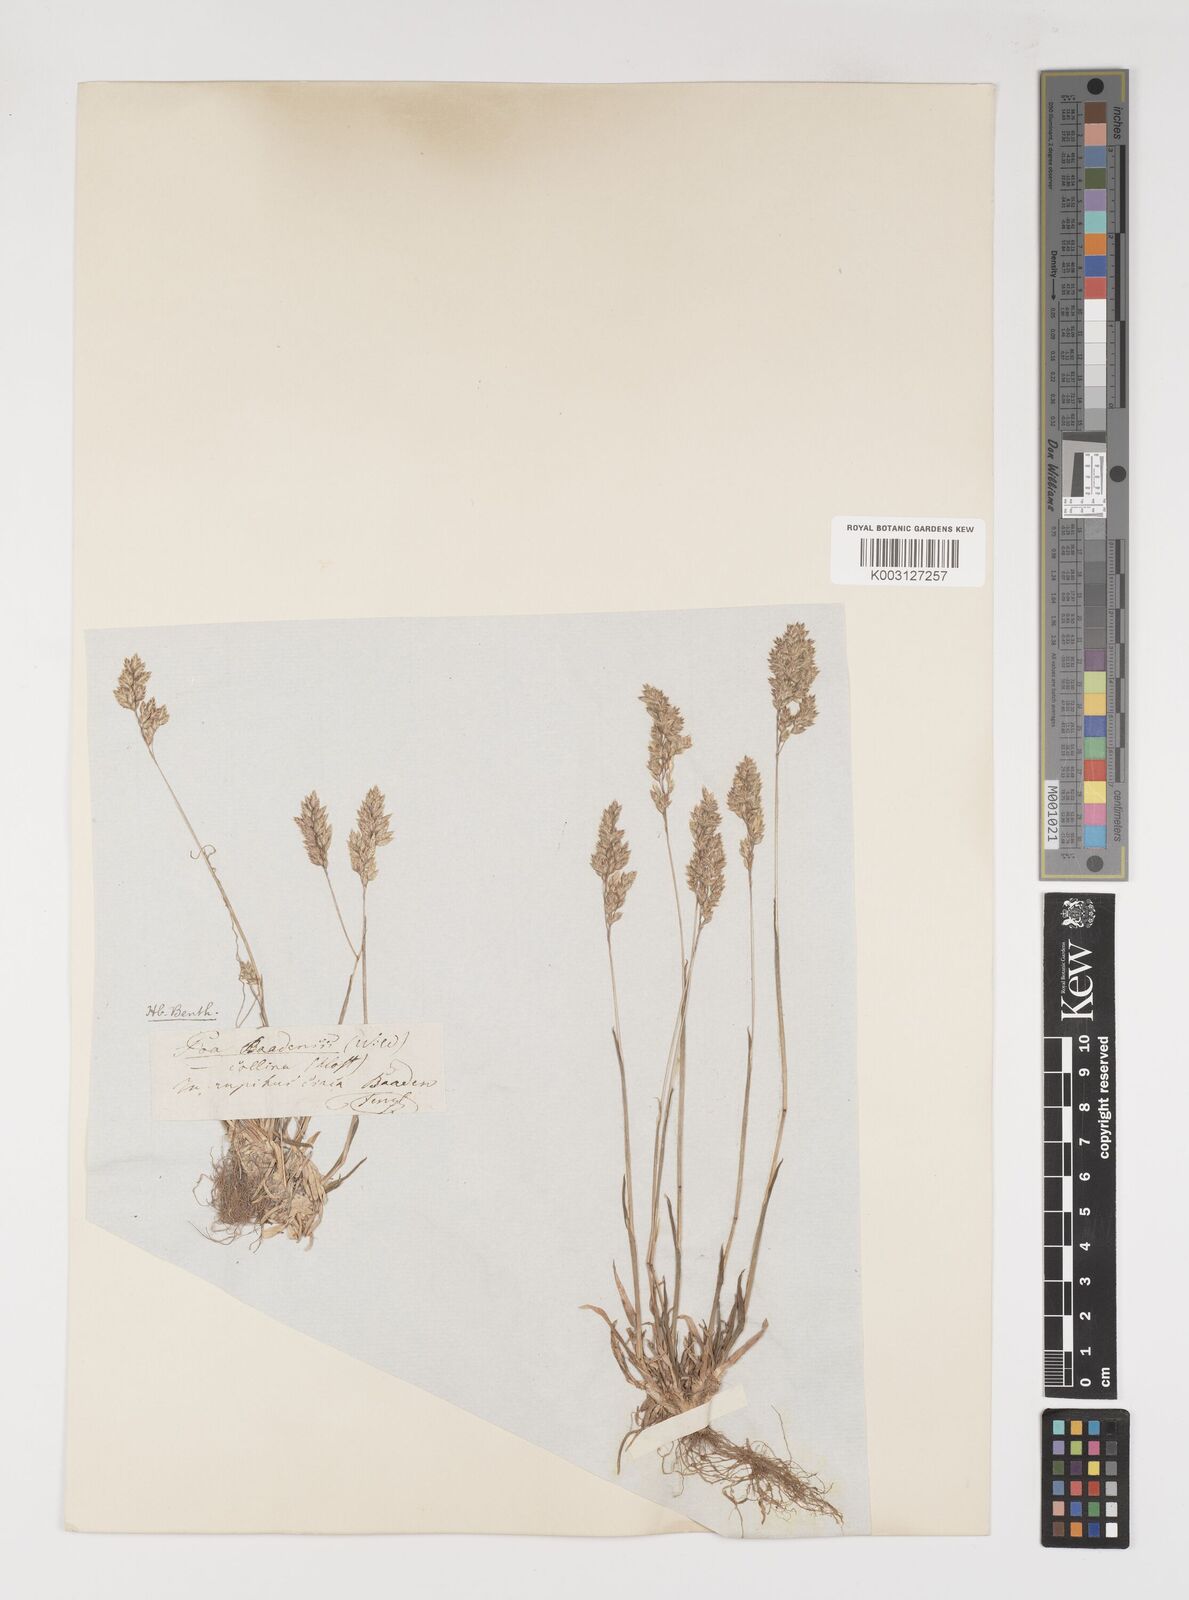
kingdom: Plantae
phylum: Tracheophyta
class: Liliopsida
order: Poales
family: Poaceae
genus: Poa
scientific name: Poa alpina
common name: Alpine bluegrass
